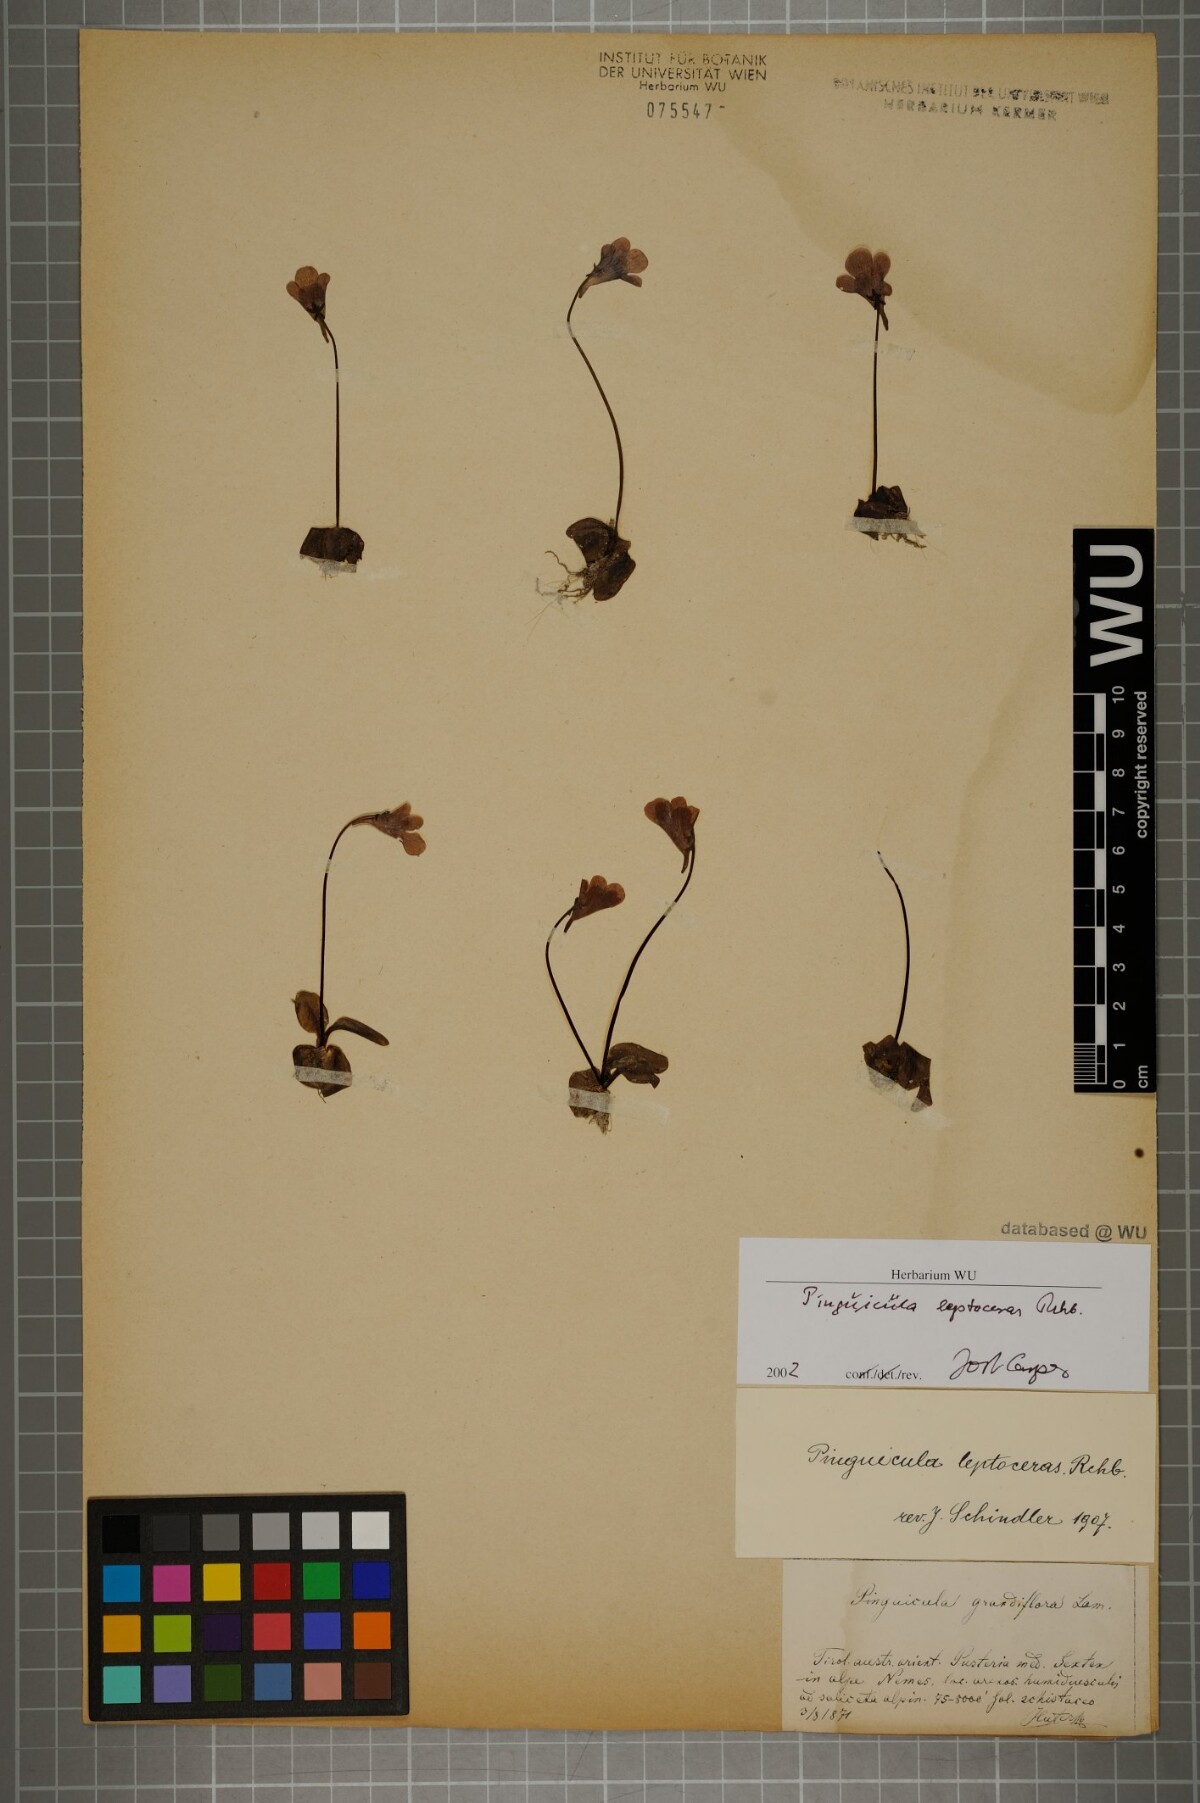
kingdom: Plantae
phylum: Tracheophyta
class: Magnoliopsida
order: Lamiales
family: Lentibulariaceae
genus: Pinguicula
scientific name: Pinguicula leptoceras
